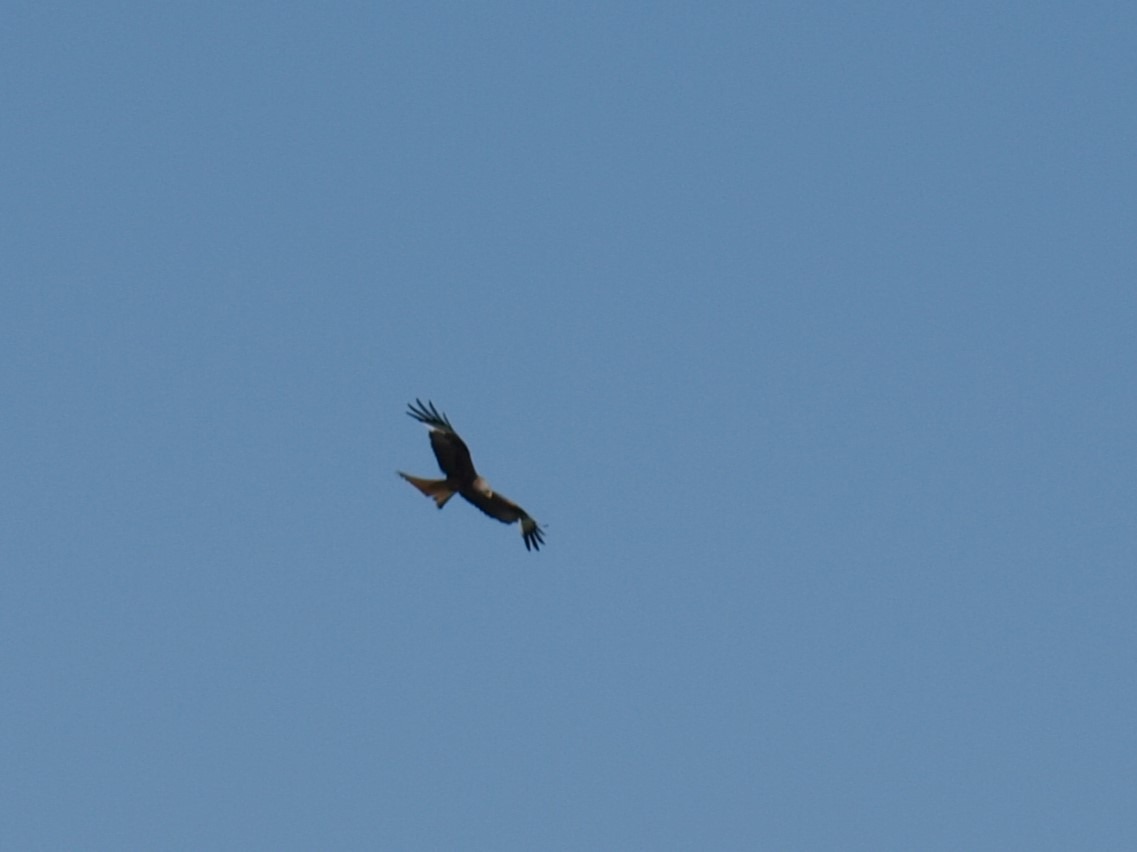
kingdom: Animalia
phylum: Chordata
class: Aves
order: Accipitriformes
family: Accipitridae
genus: Milvus
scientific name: Milvus milvus
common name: Rød glente
